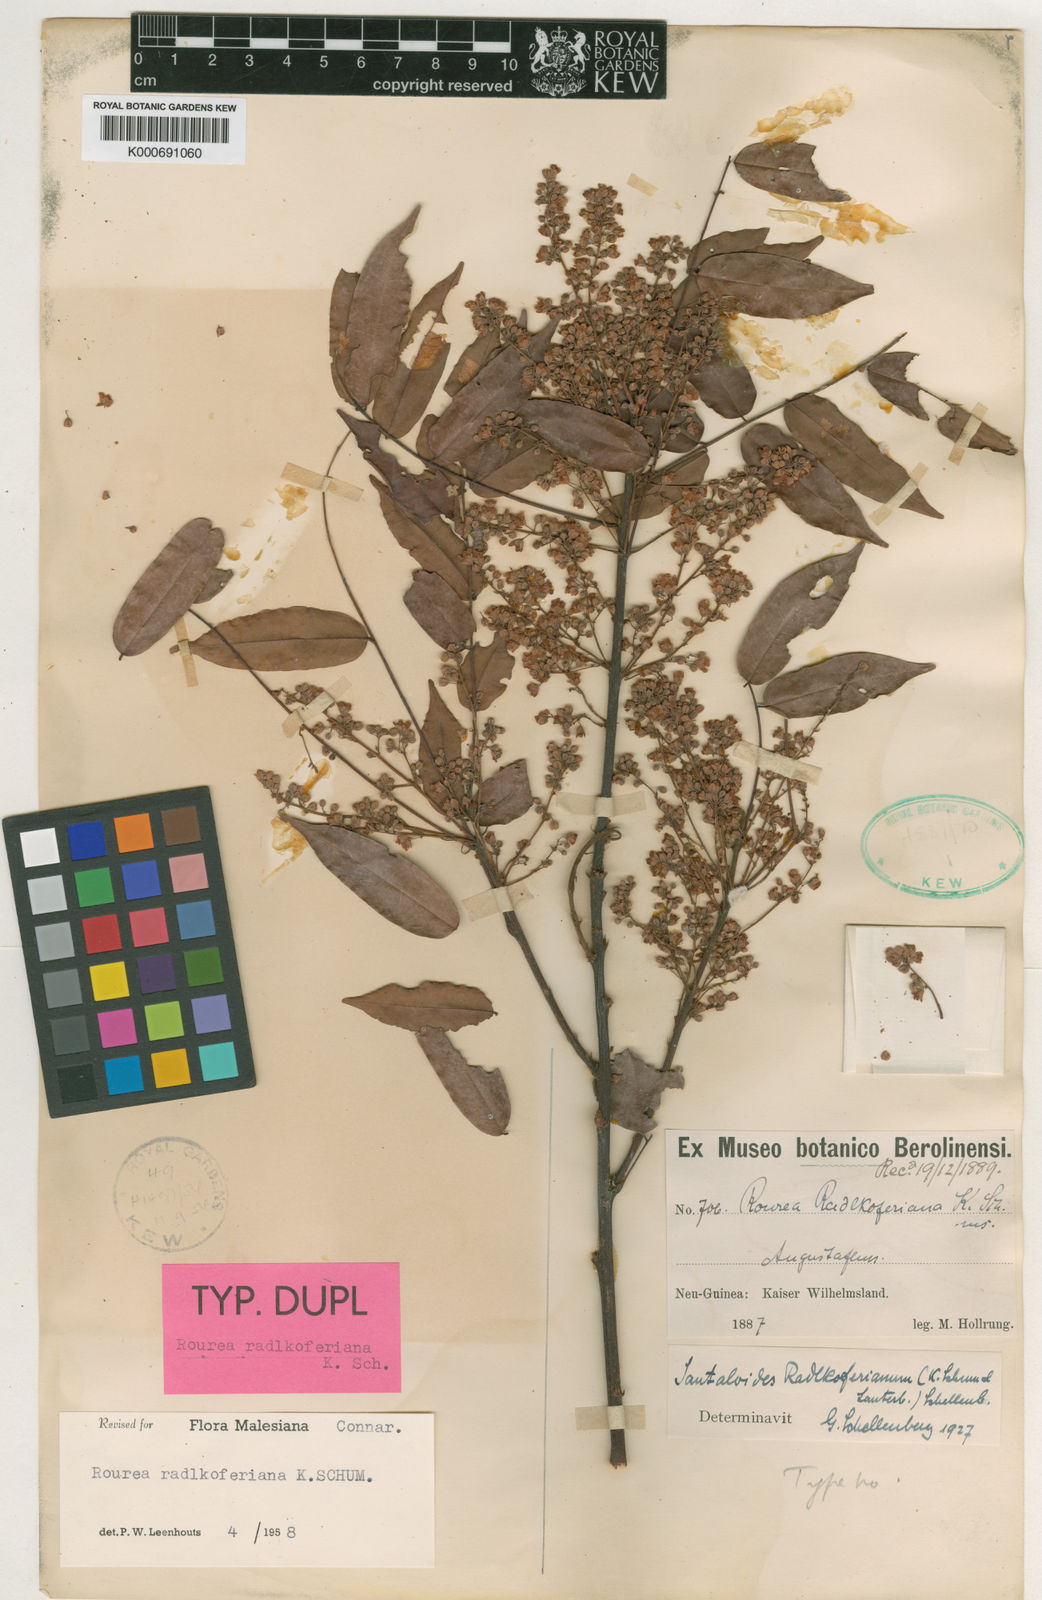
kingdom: Plantae
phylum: Tracheophyta
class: Magnoliopsida
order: Oxalidales
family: Connaraceae
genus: Rourea
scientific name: Rourea radlkoferiana
